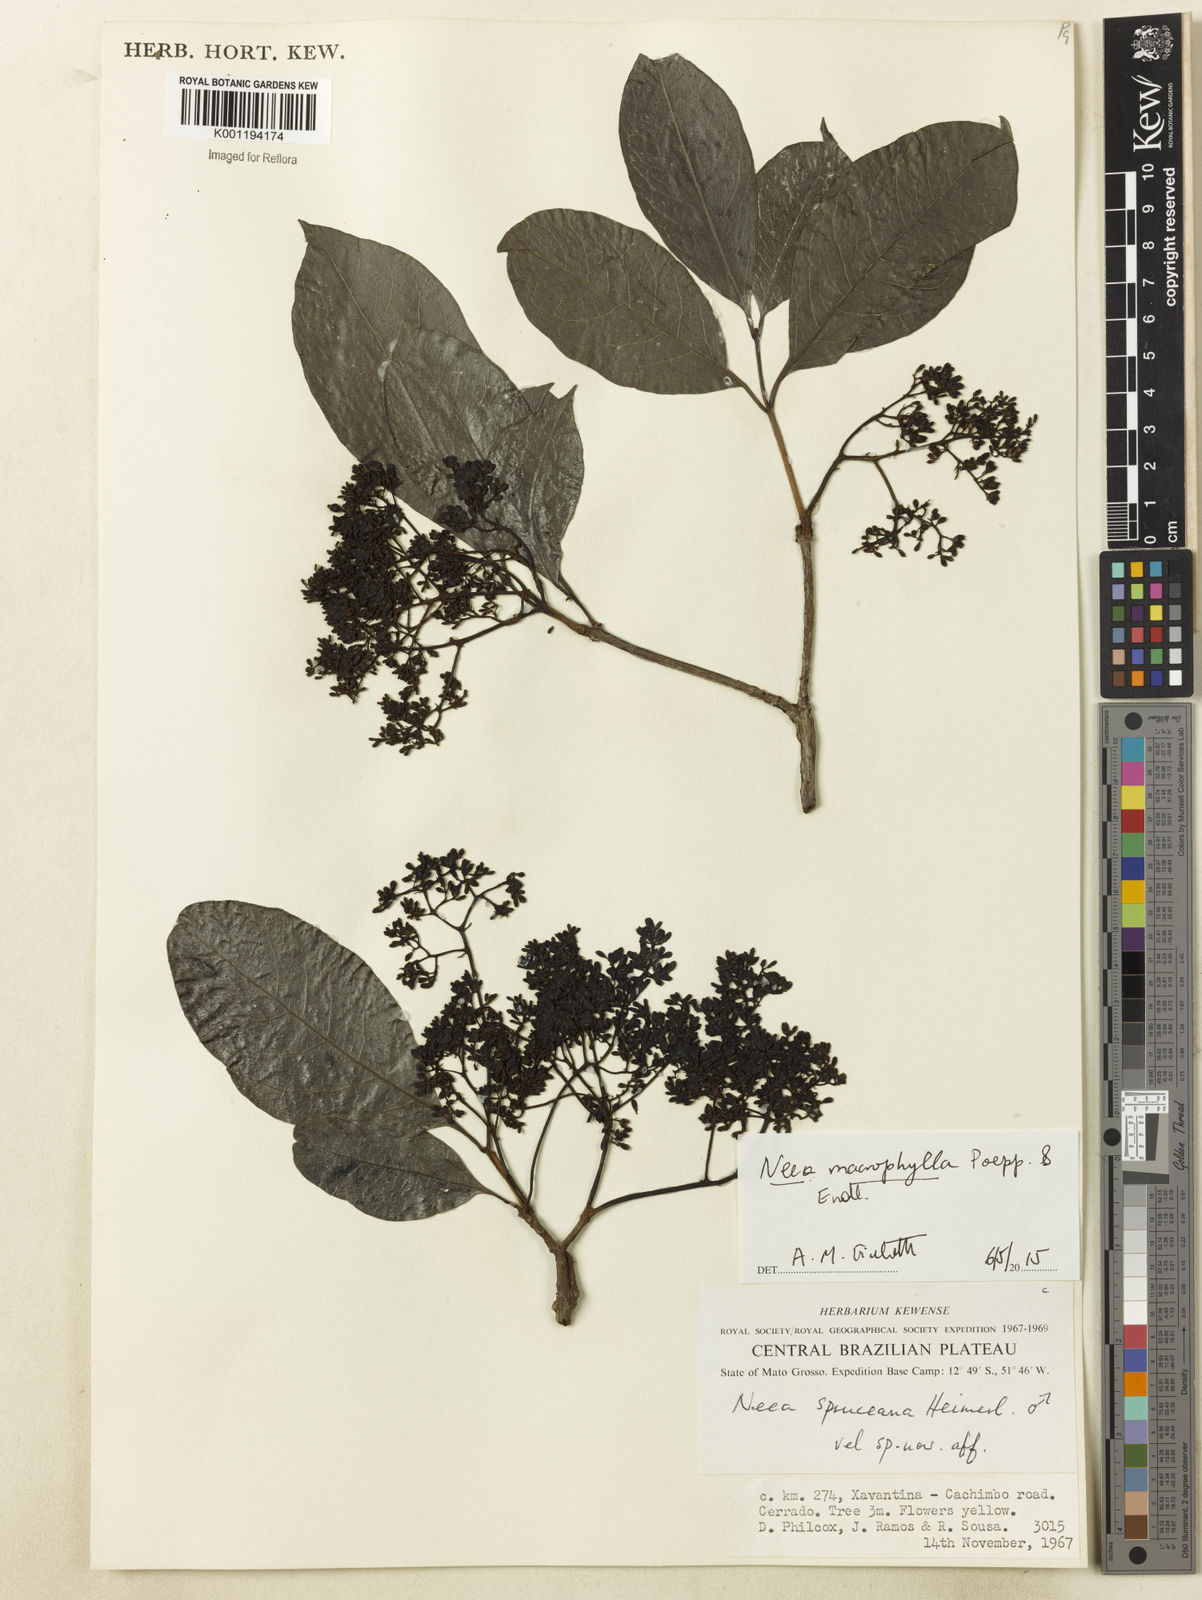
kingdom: Plantae
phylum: Tracheophyta
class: Magnoliopsida
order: Caryophyllales
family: Nyctaginaceae
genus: Neea
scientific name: Neea macrophylla
